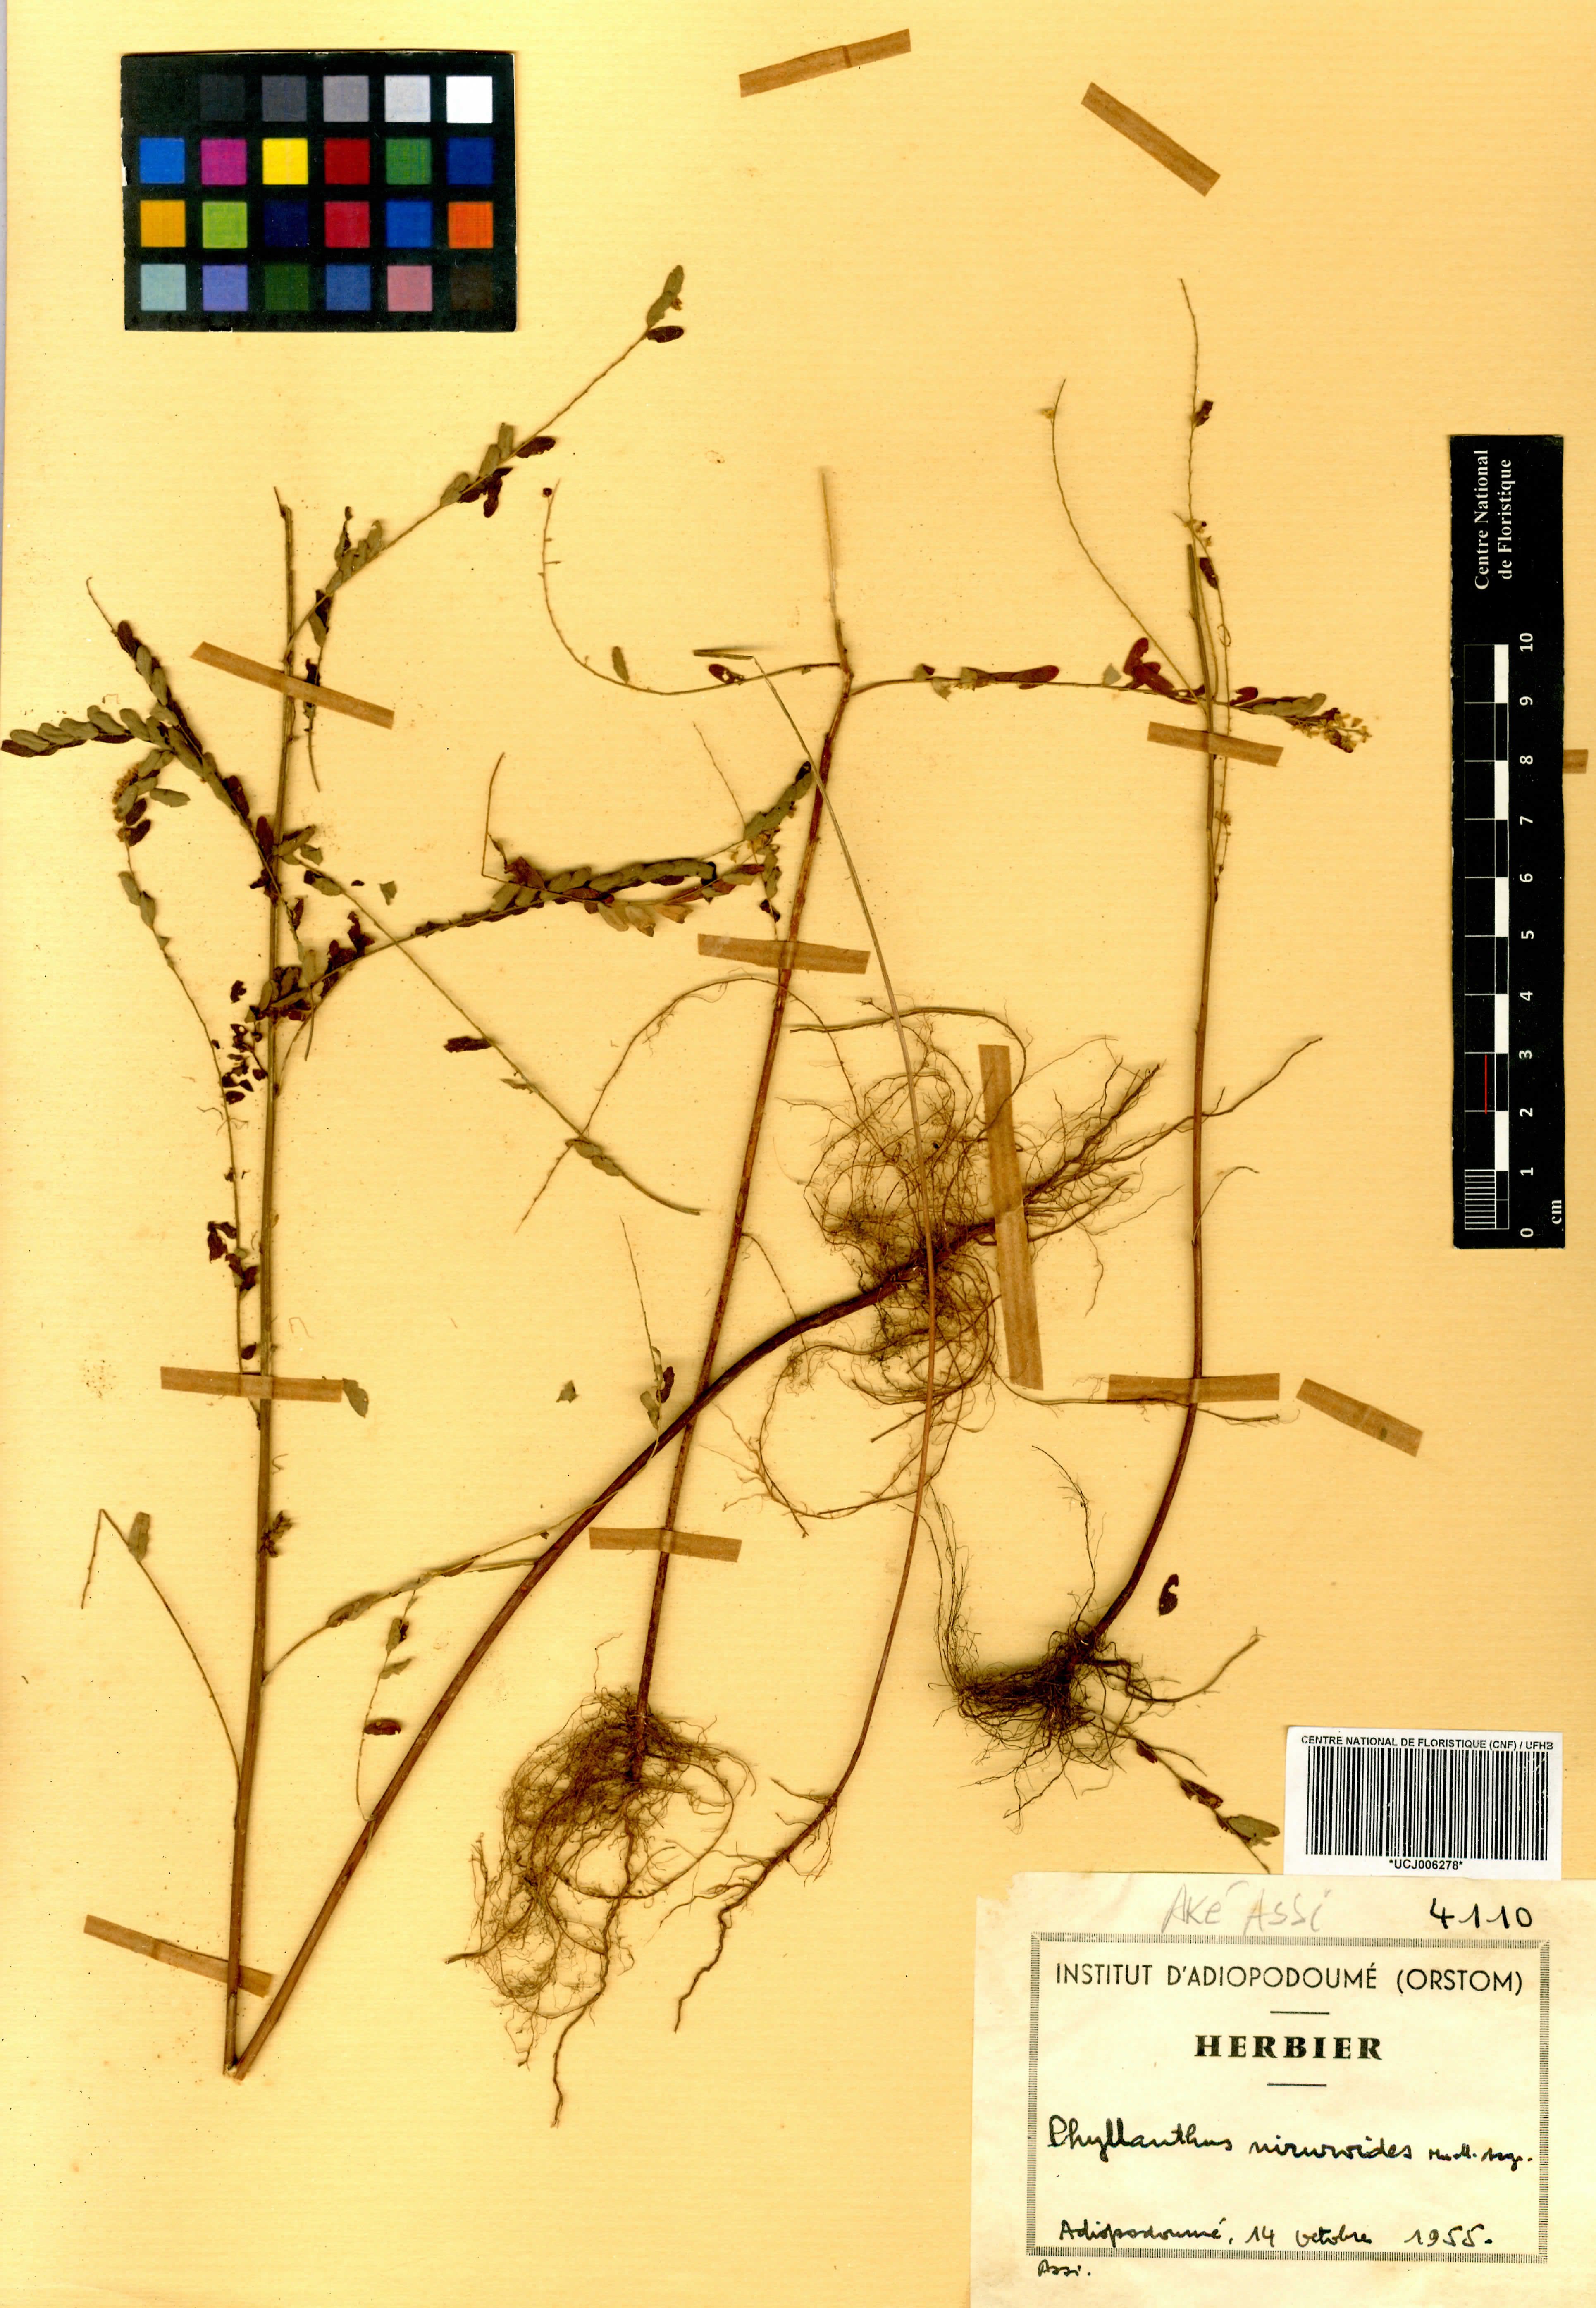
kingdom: Plantae
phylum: Tracheophyta
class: Magnoliopsida
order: Malpighiales
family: Phyllanthaceae
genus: Phyllanthus
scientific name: Phyllanthus niruroides
